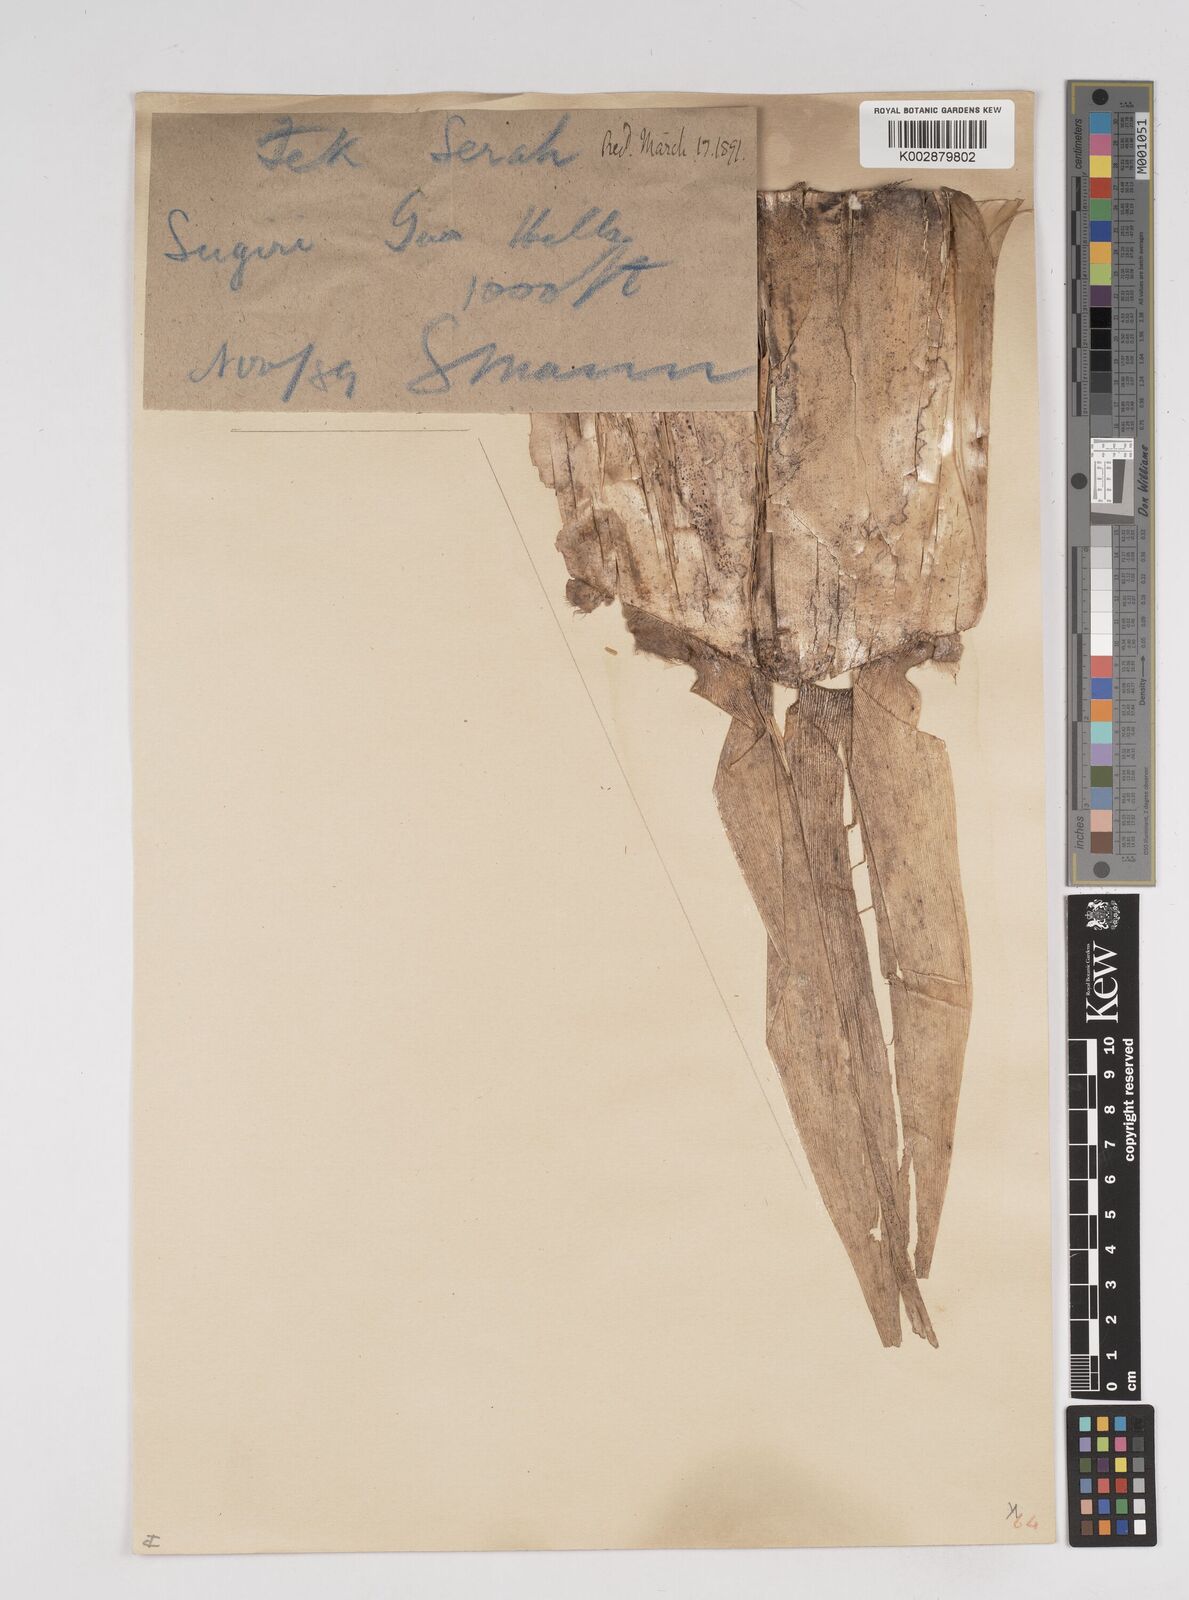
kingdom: Plantae
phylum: Tracheophyta
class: Liliopsida
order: Poales
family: Poaceae
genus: Gigantochloa
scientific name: Gigantochloa macrostachya
